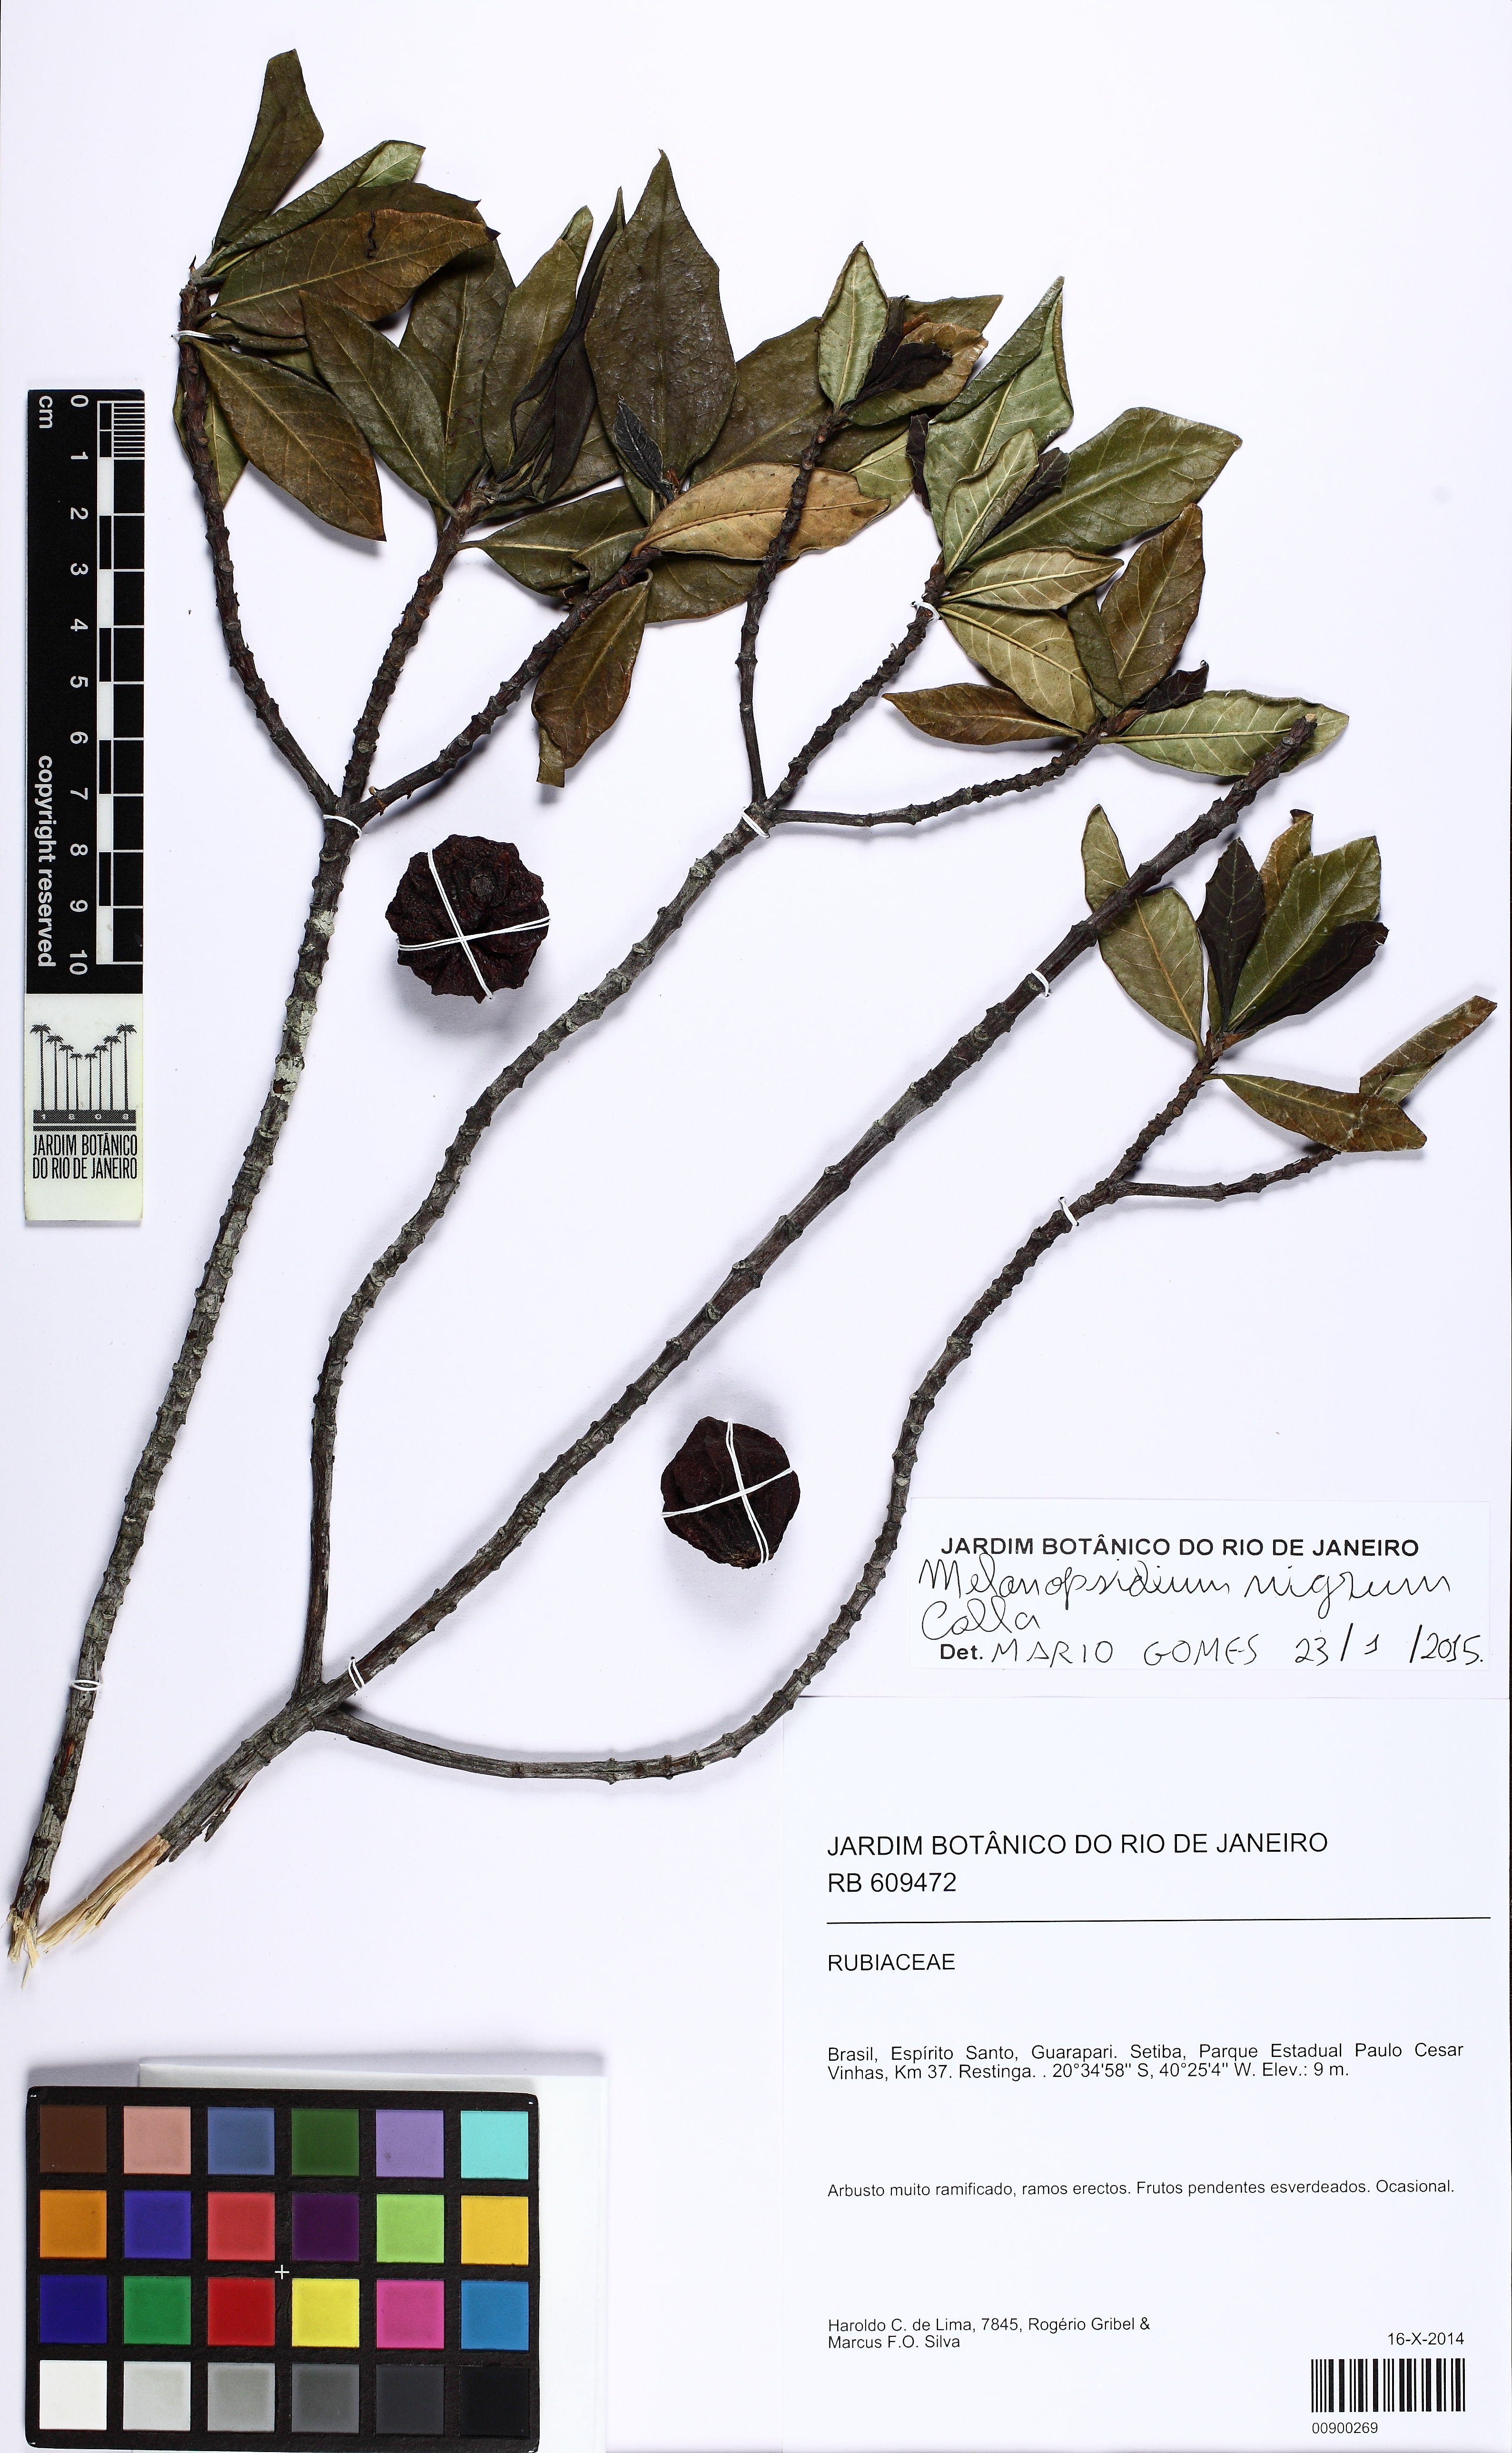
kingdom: Plantae
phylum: Tracheophyta
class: Magnoliopsida
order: Gentianales
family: Rubiaceae
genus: Melanopsidium
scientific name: Melanopsidium nigrum
